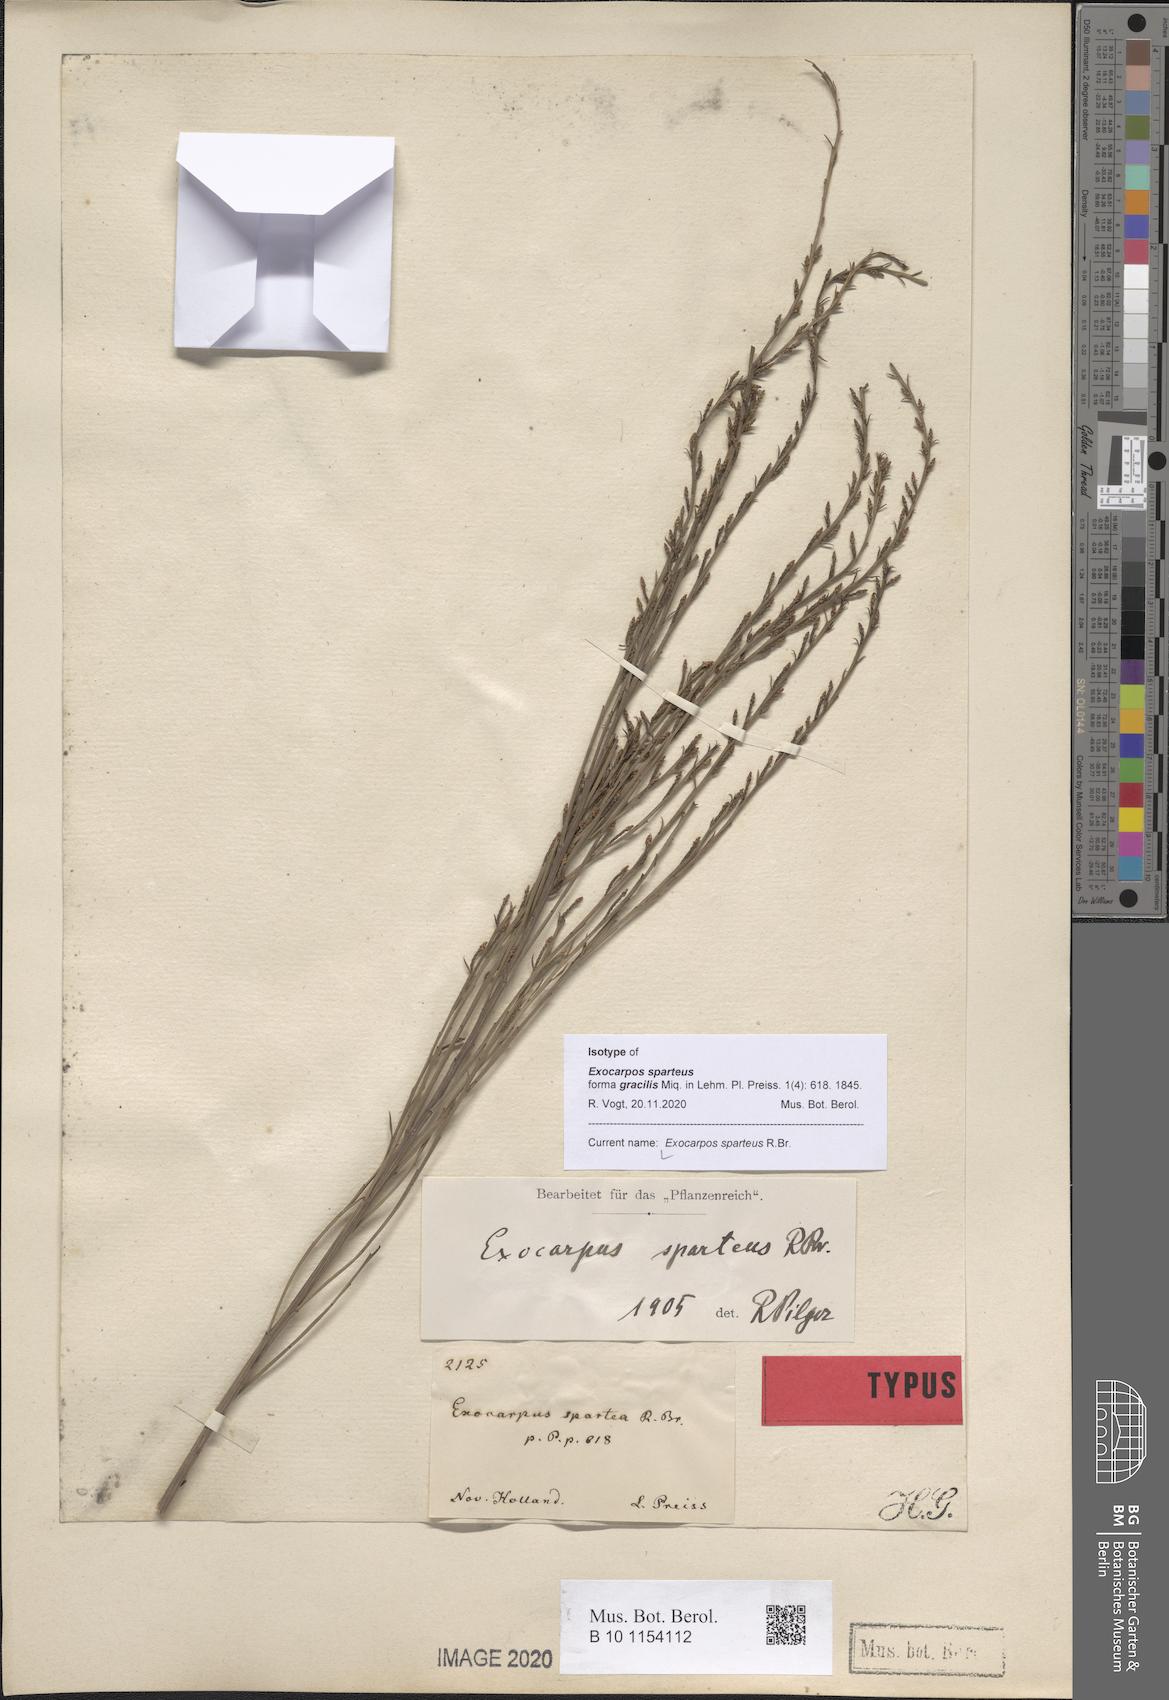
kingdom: Plantae
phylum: Tracheophyta
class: Magnoliopsida
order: Santalales
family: Santalaceae
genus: Exocarpos
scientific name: Exocarpos sparteus
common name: Broom ballart
